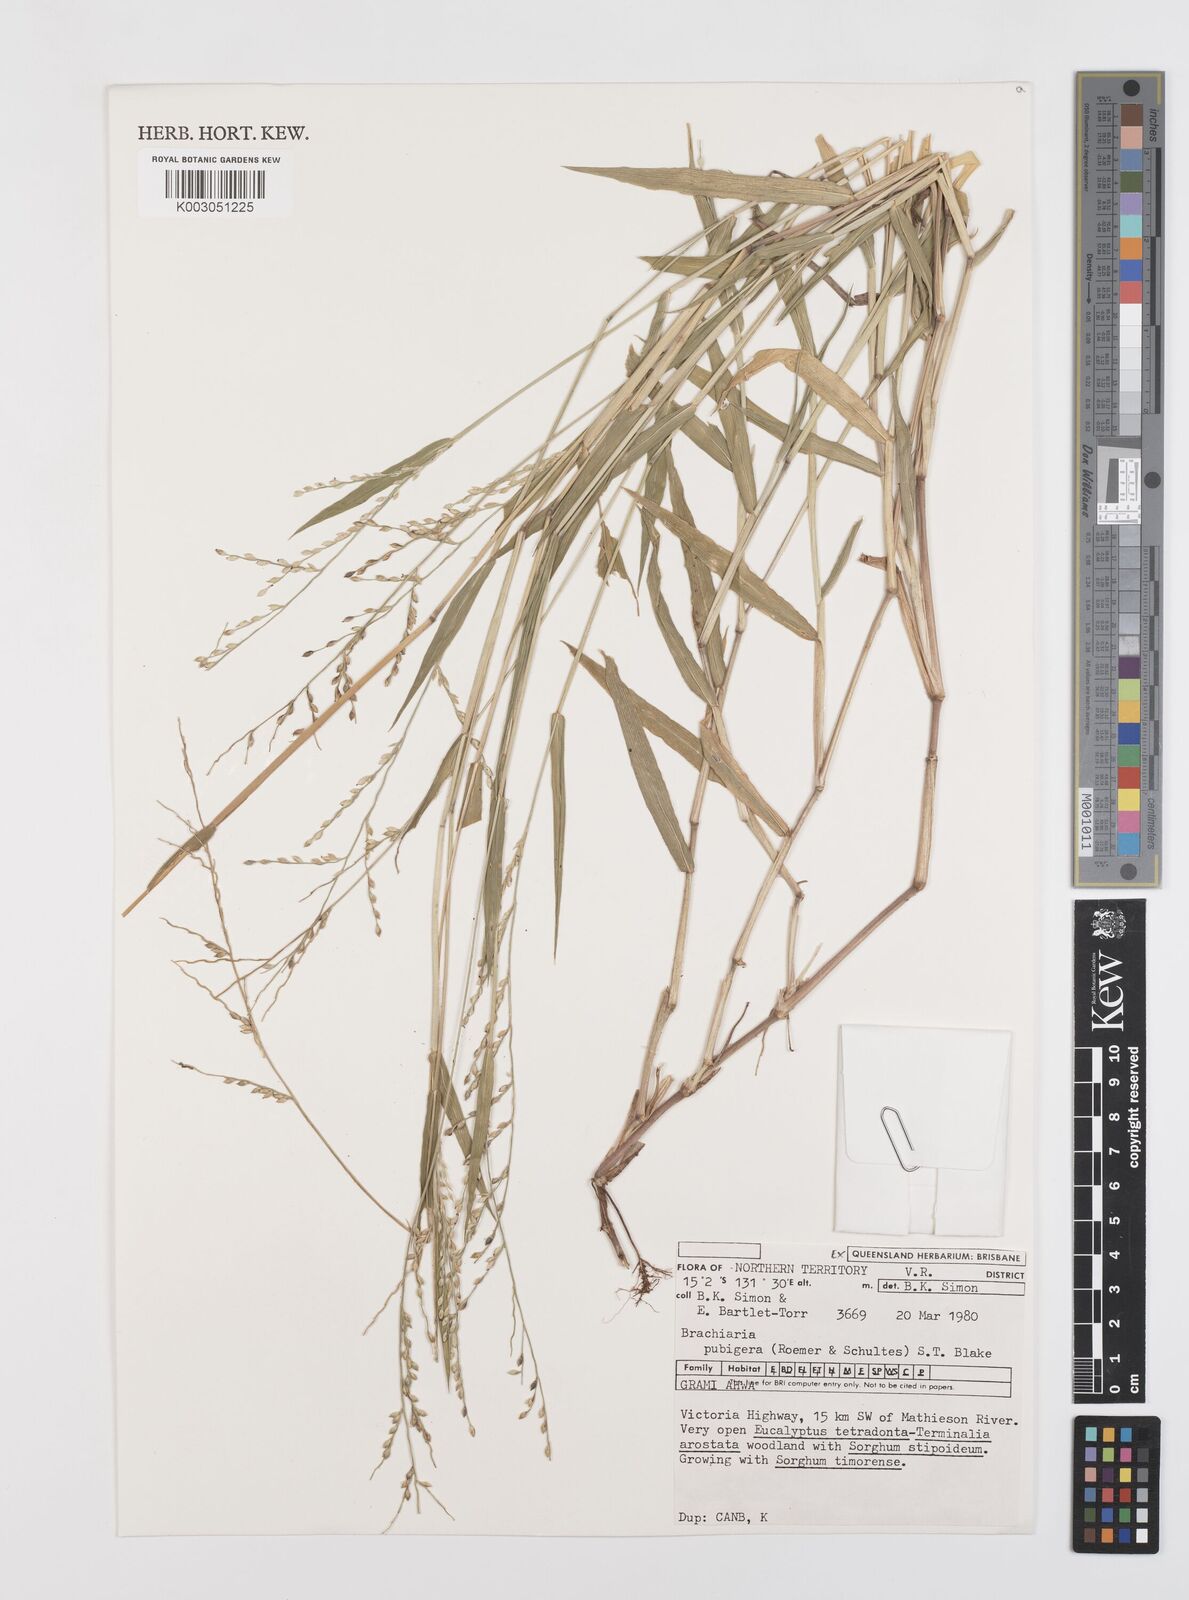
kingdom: Plantae
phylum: Tracheophyta
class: Liliopsida
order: Poales
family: Poaceae
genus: Urochloa
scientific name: Urochloa praetervisa
